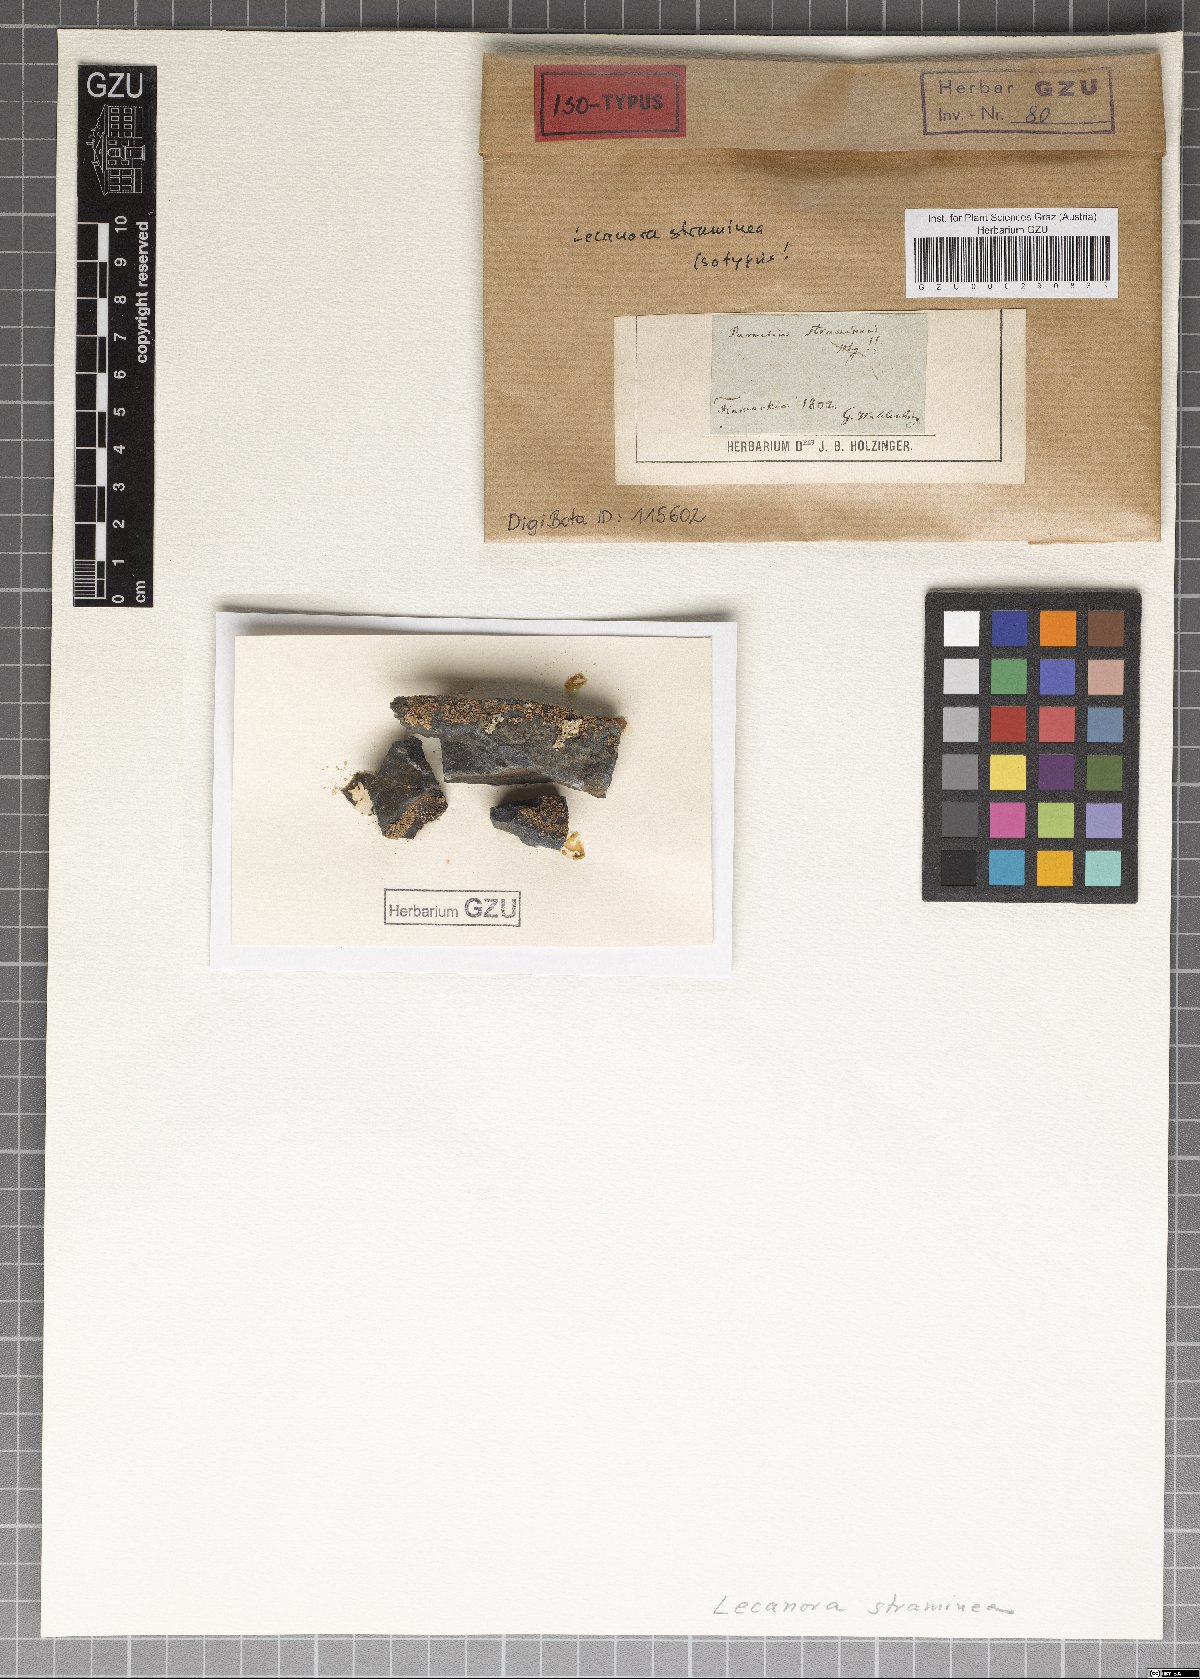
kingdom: Fungi
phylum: Ascomycota
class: Lecanoromycetes
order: Lecanorales
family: Lecanoraceae
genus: Polyozosia
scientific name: Polyozosia straminea
